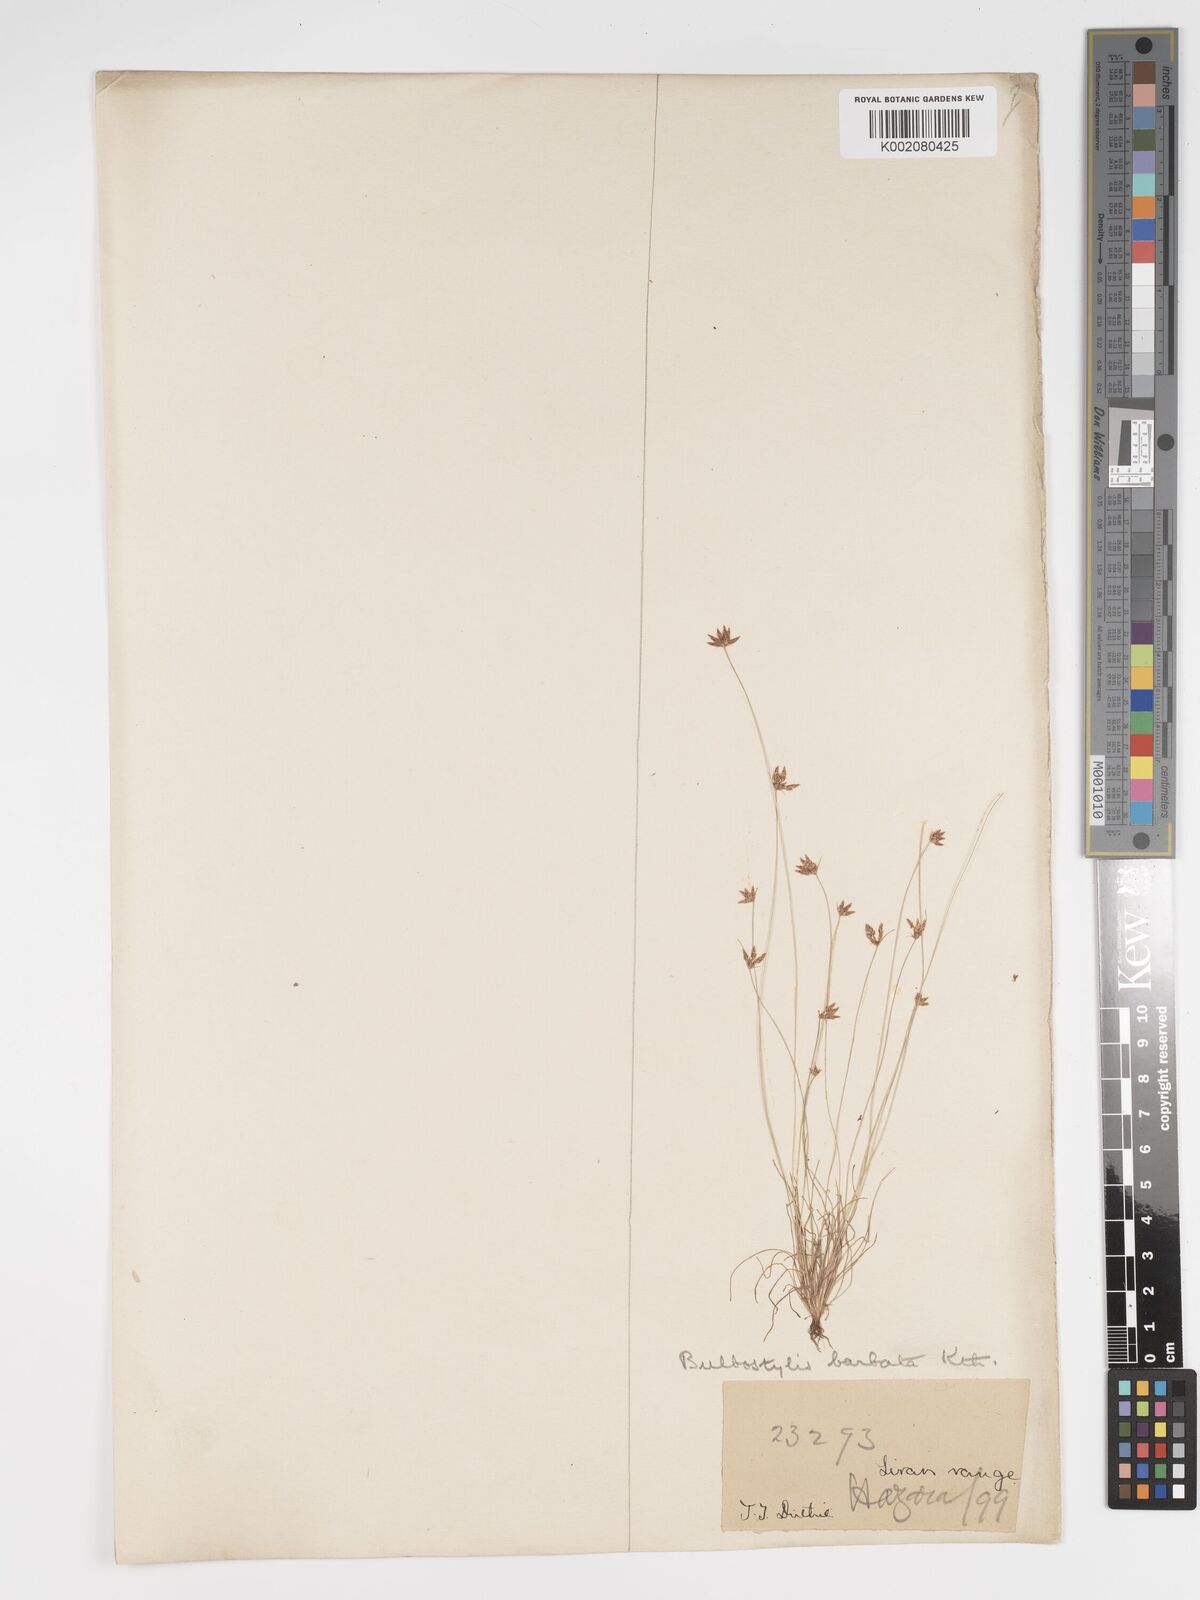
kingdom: Plantae
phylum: Tracheophyta
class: Liliopsida
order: Poales
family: Cyperaceae
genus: Bulbostylis
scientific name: Bulbostylis barbata
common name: Watergrass
